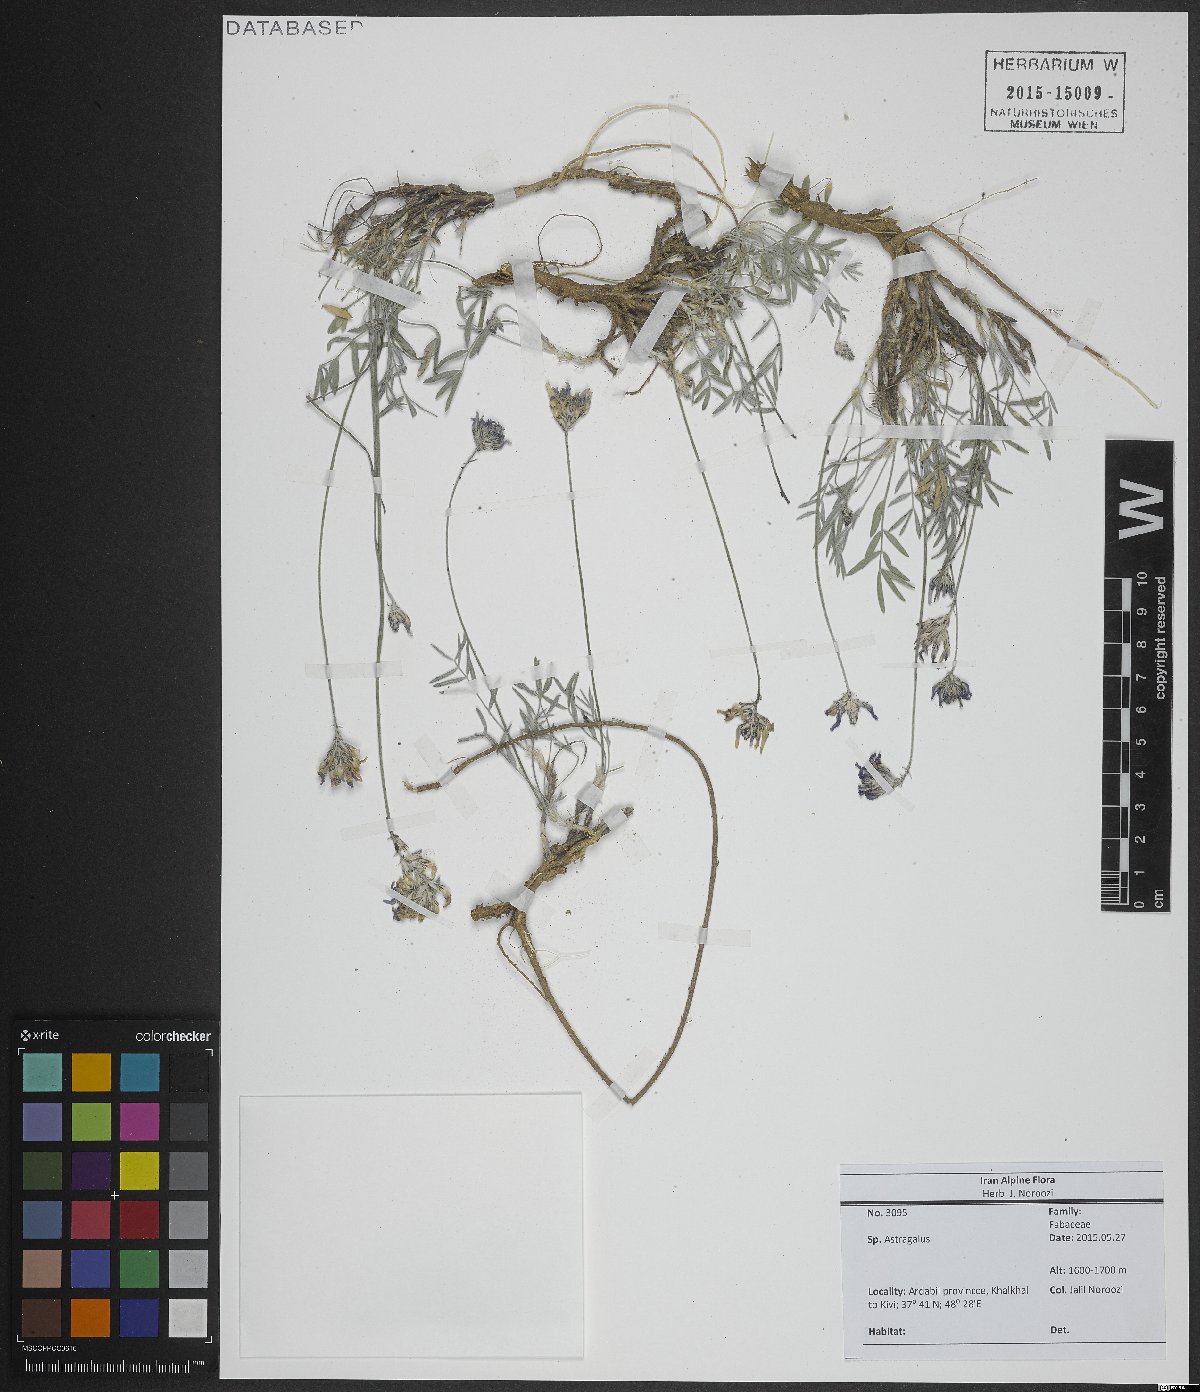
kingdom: Plantae
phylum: Tracheophyta
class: Magnoliopsida
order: Fabales
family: Fabaceae
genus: Astragalus
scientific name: Astragalus
